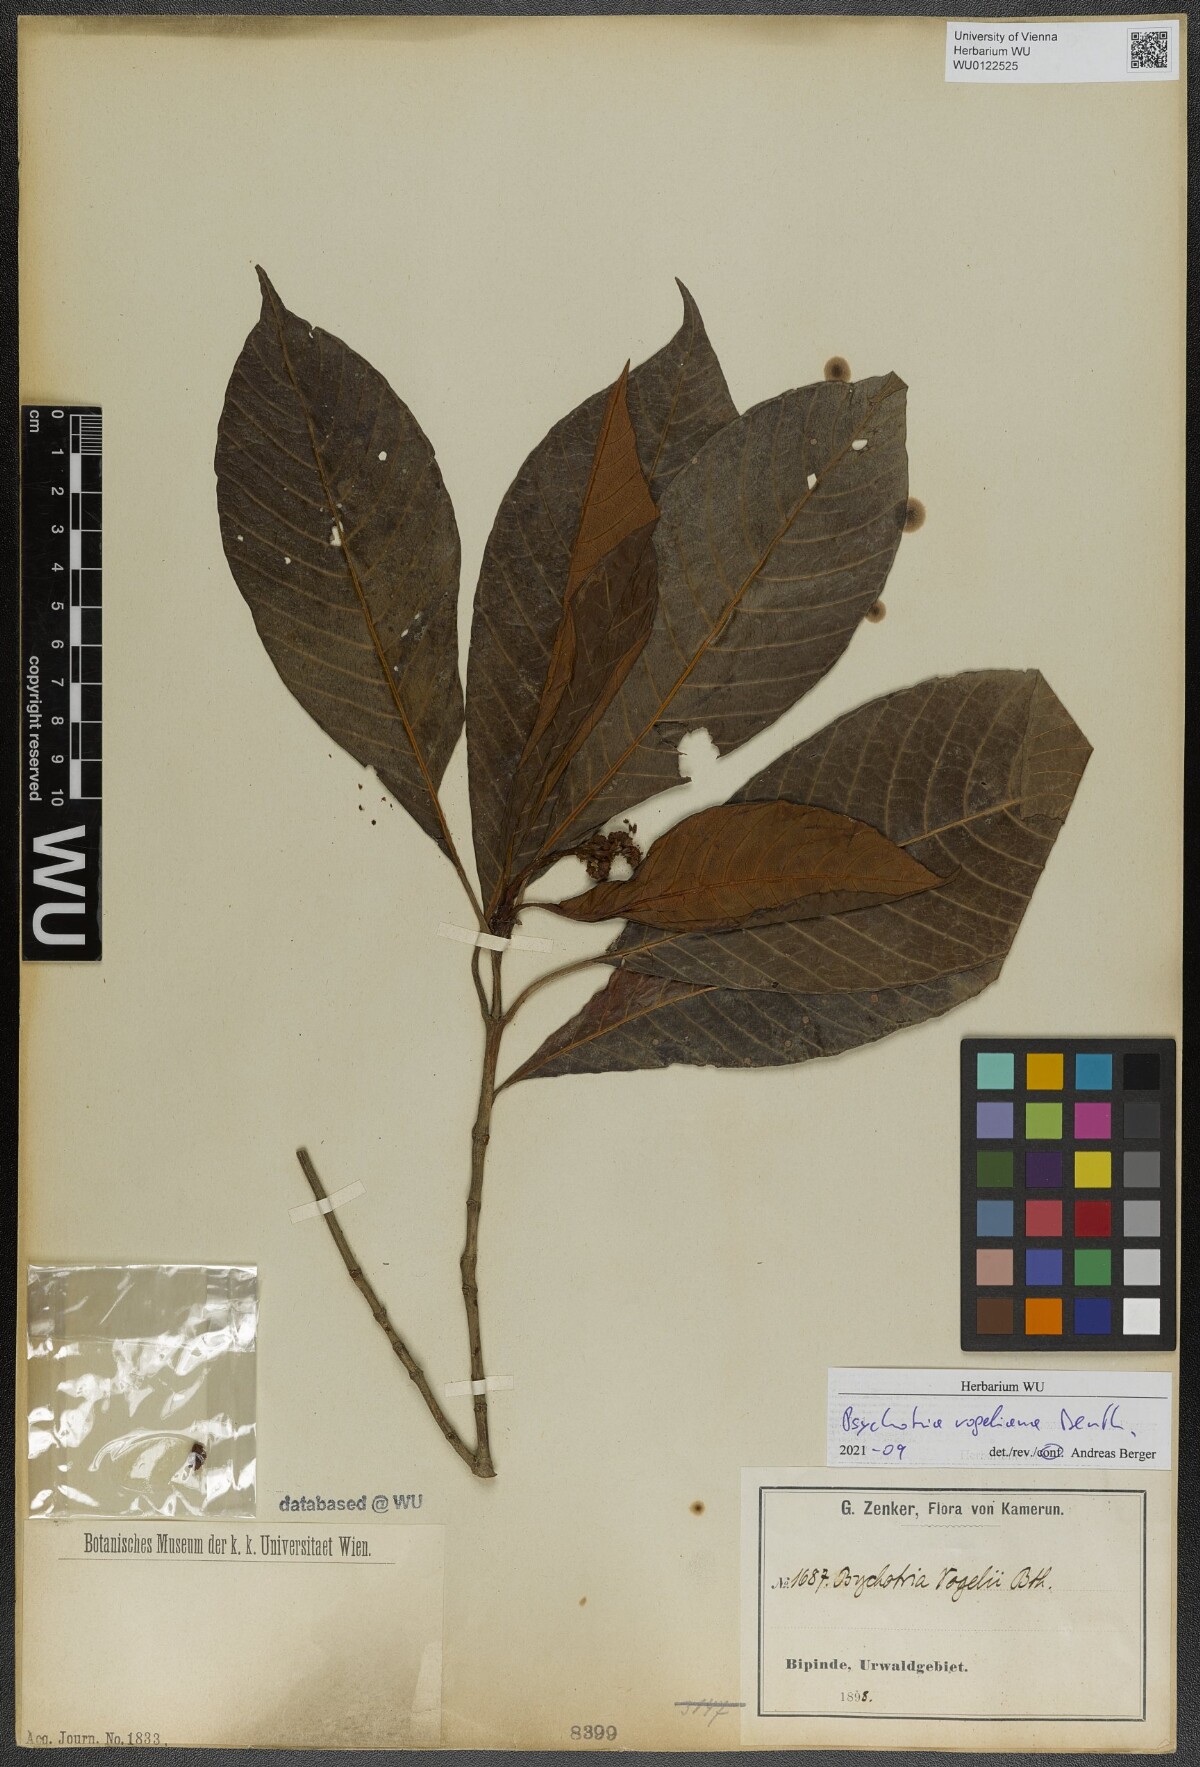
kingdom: Plantae
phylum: Tracheophyta
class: Magnoliopsida
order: Gentianales
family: Rubiaceae
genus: Psychotria
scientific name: Psychotria vogeliana
